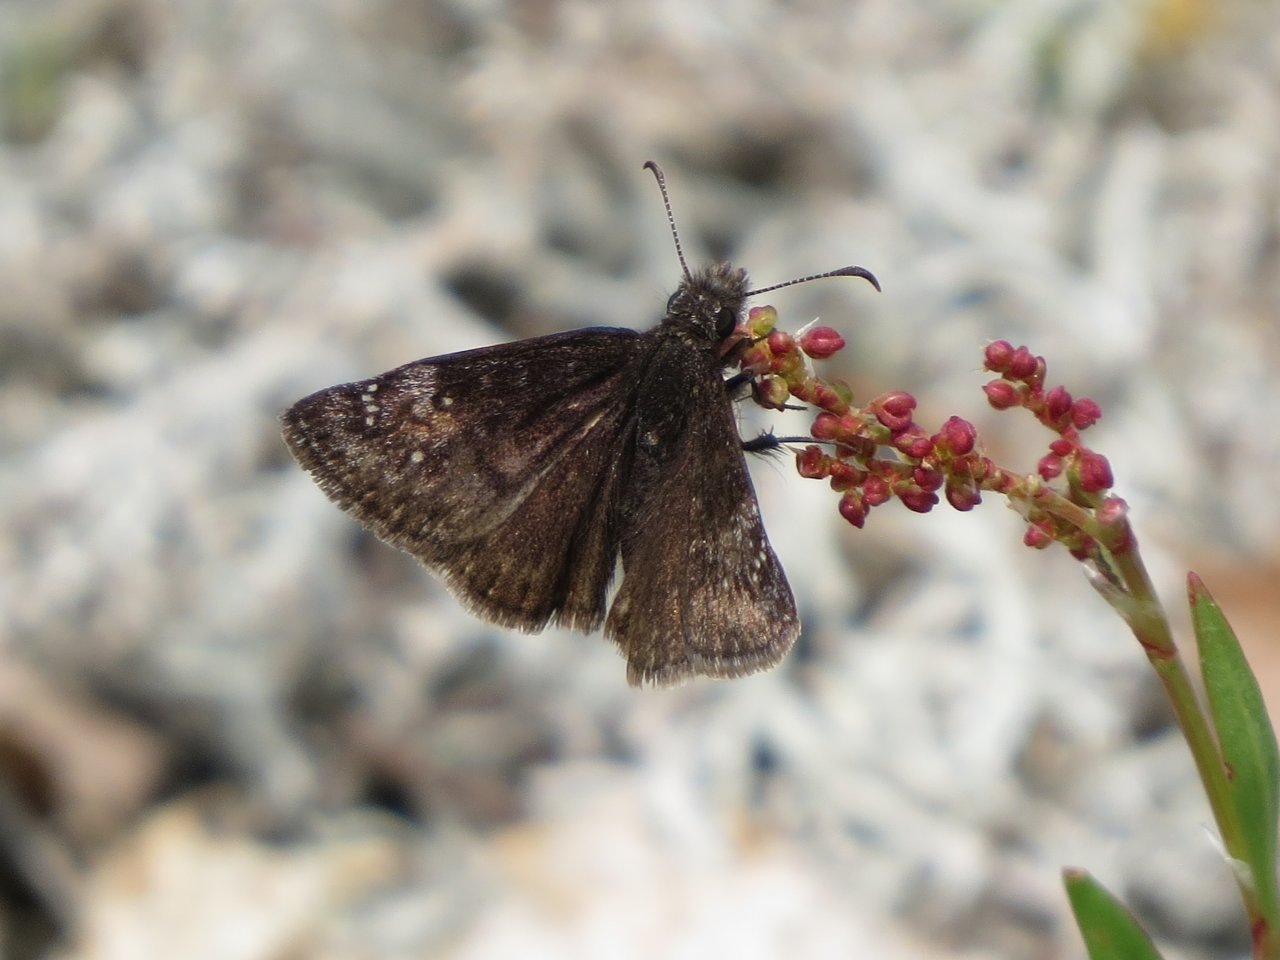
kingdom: Animalia
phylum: Arthropoda
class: Insecta
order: Lepidoptera
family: Hesperiidae
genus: Gesta
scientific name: Gesta
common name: Columbine Duskywing
